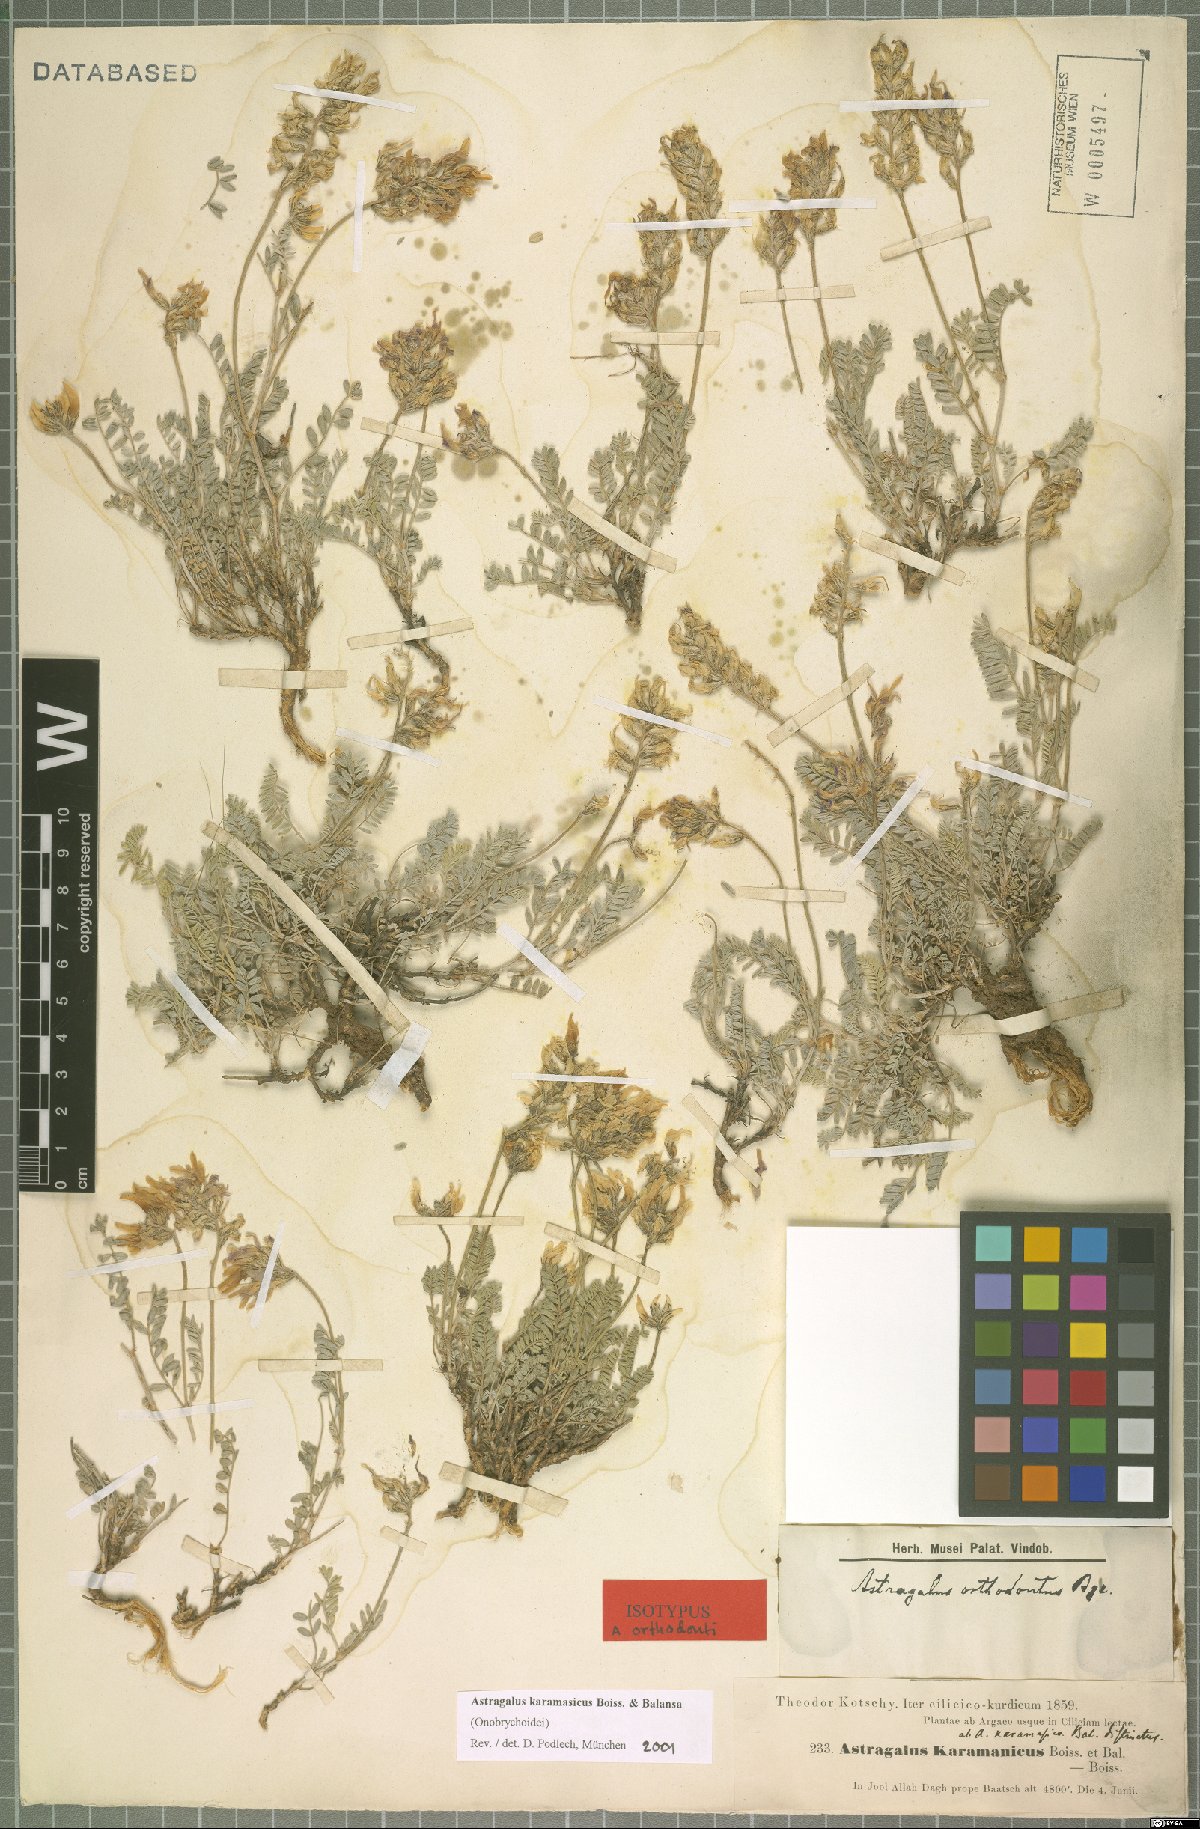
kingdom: Plantae
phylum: Tracheophyta
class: Magnoliopsida
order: Fabales
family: Fabaceae
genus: Astragalus
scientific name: Astragalus karamasicus
